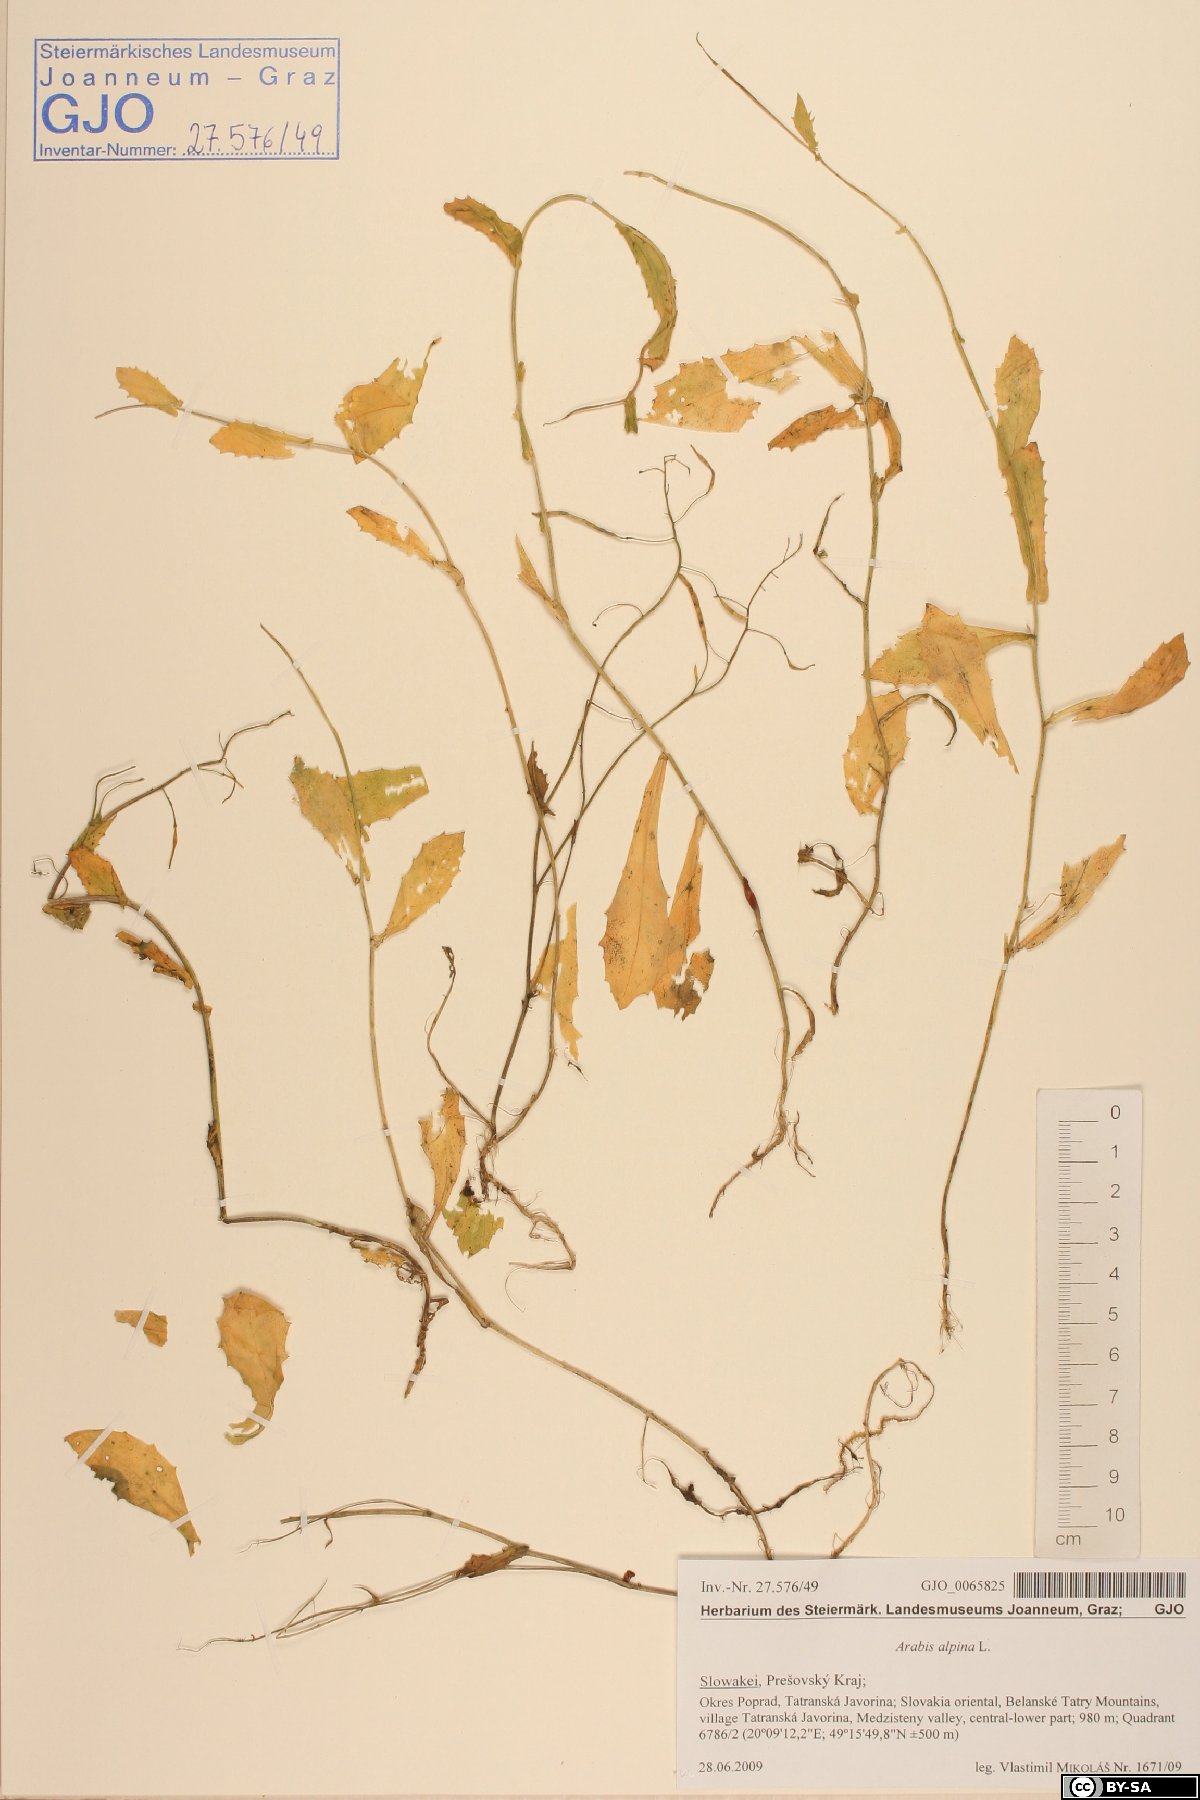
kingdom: Plantae
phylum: Tracheophyta
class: Magnoliopsida
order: Brassicales
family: Brassicaceae
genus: Arabis
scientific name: Arabis alpina
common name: Alpine rock-cress
